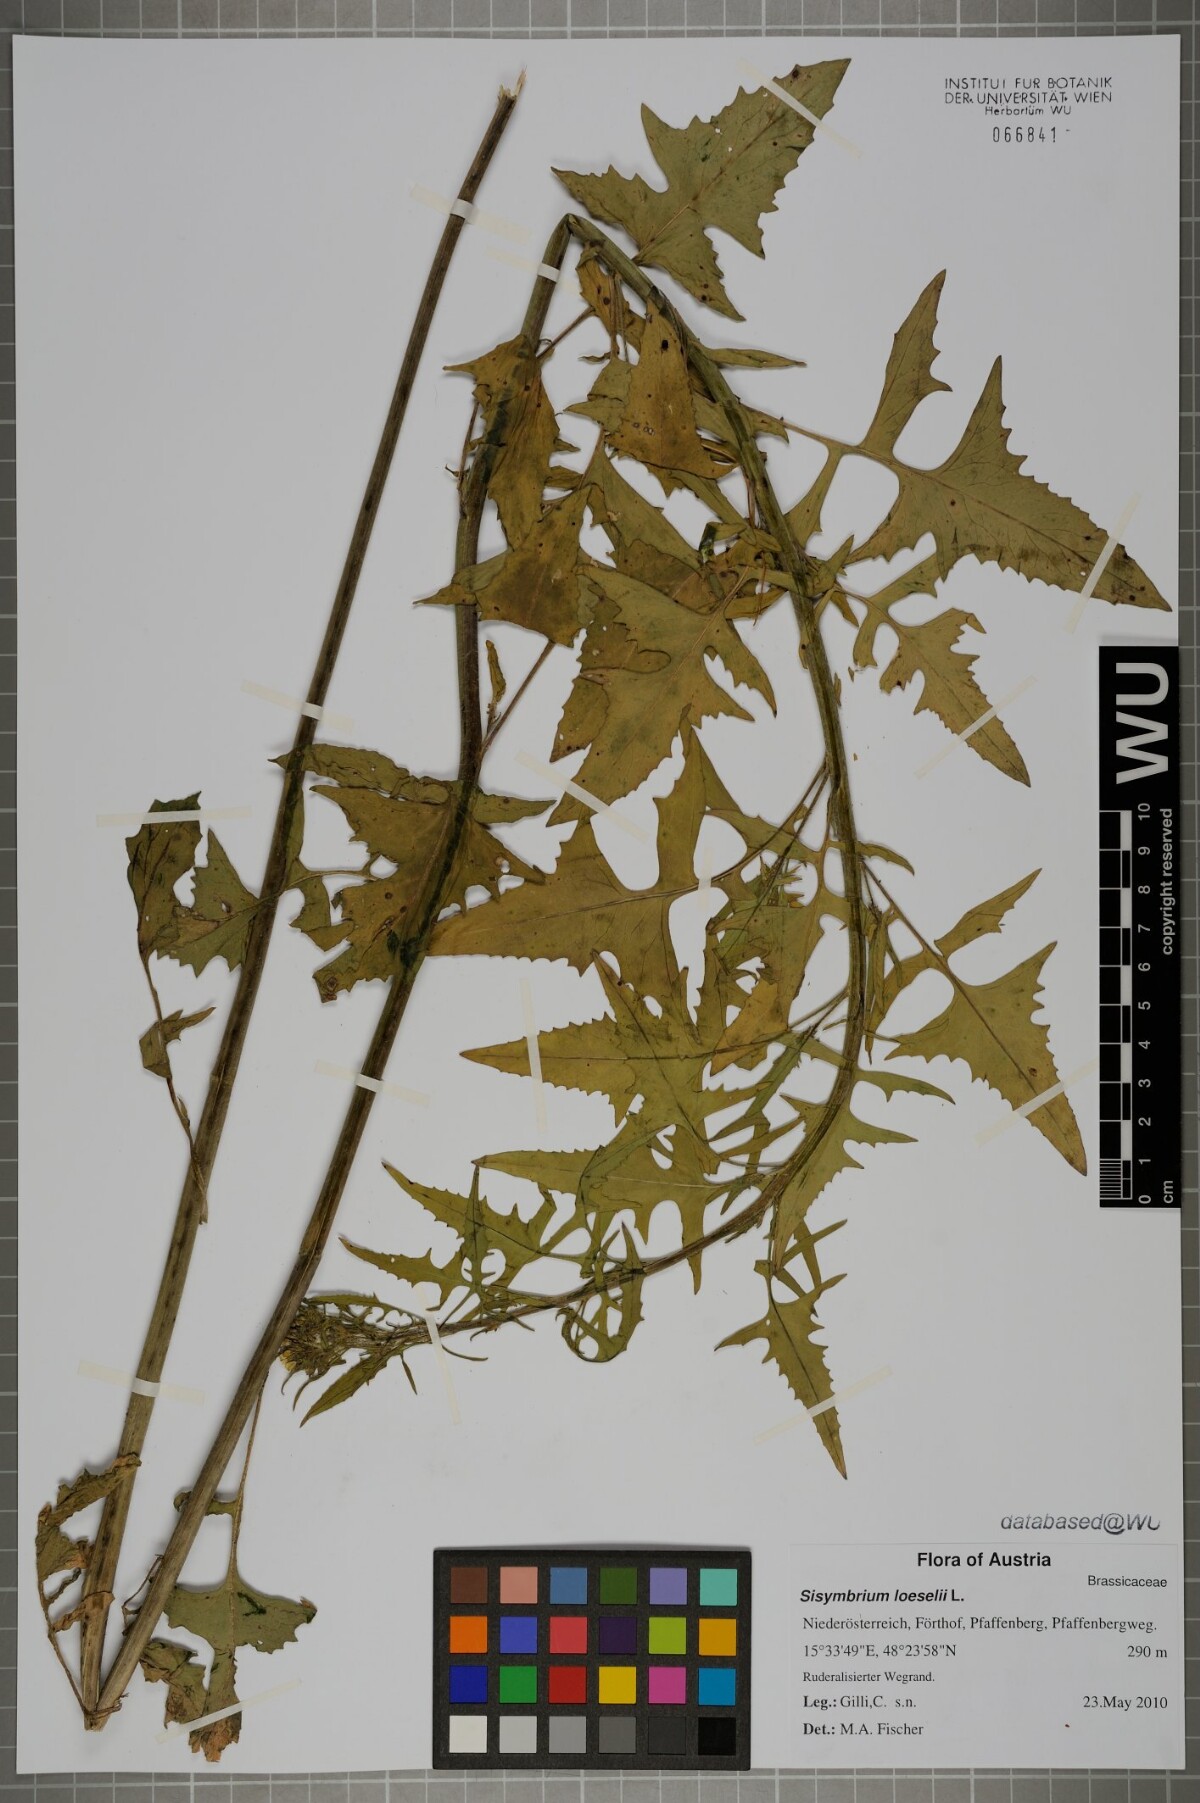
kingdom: Plantae
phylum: Tracheophyta
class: Magnoliopsida
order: Brassicales
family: Brassicaceae
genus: Sisymbrium
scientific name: Sisymbrium loeselii
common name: False london-rocket
